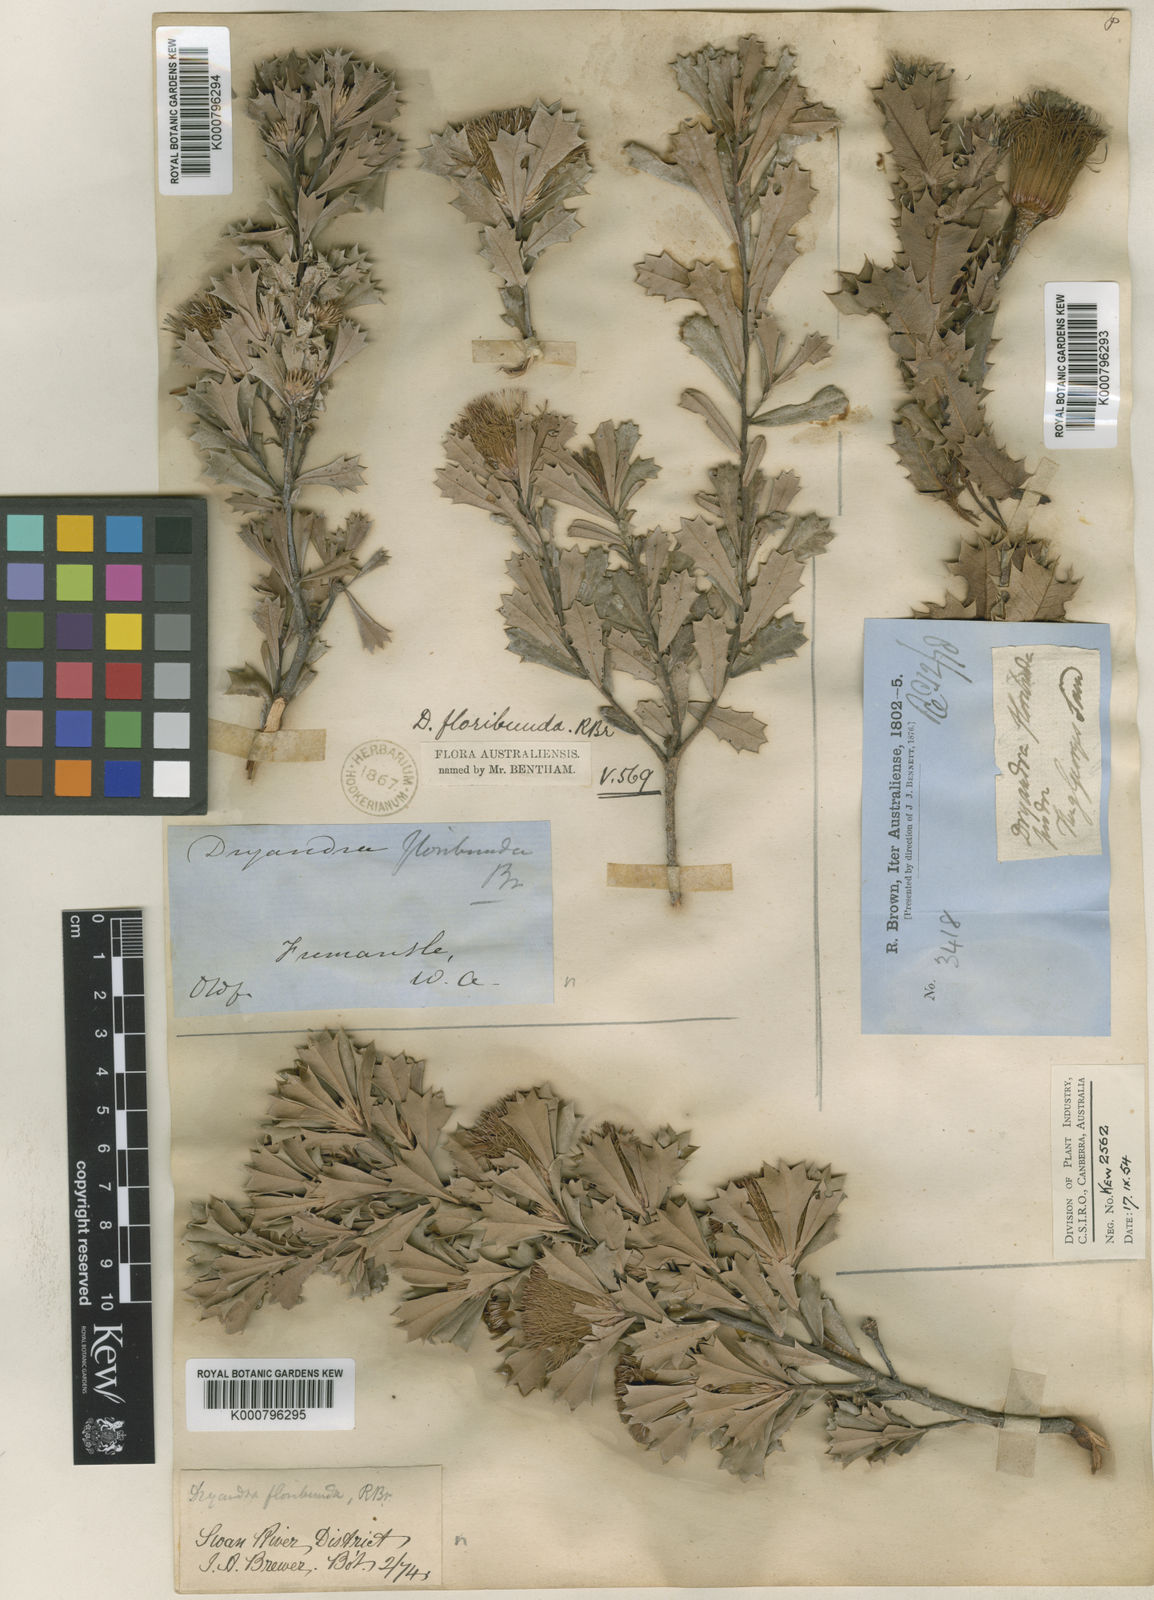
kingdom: Plantae
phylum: Tracheophyta
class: Magnoliopsida
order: Proteales
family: Proteaceae
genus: Banksia
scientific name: Banksia sessilis
